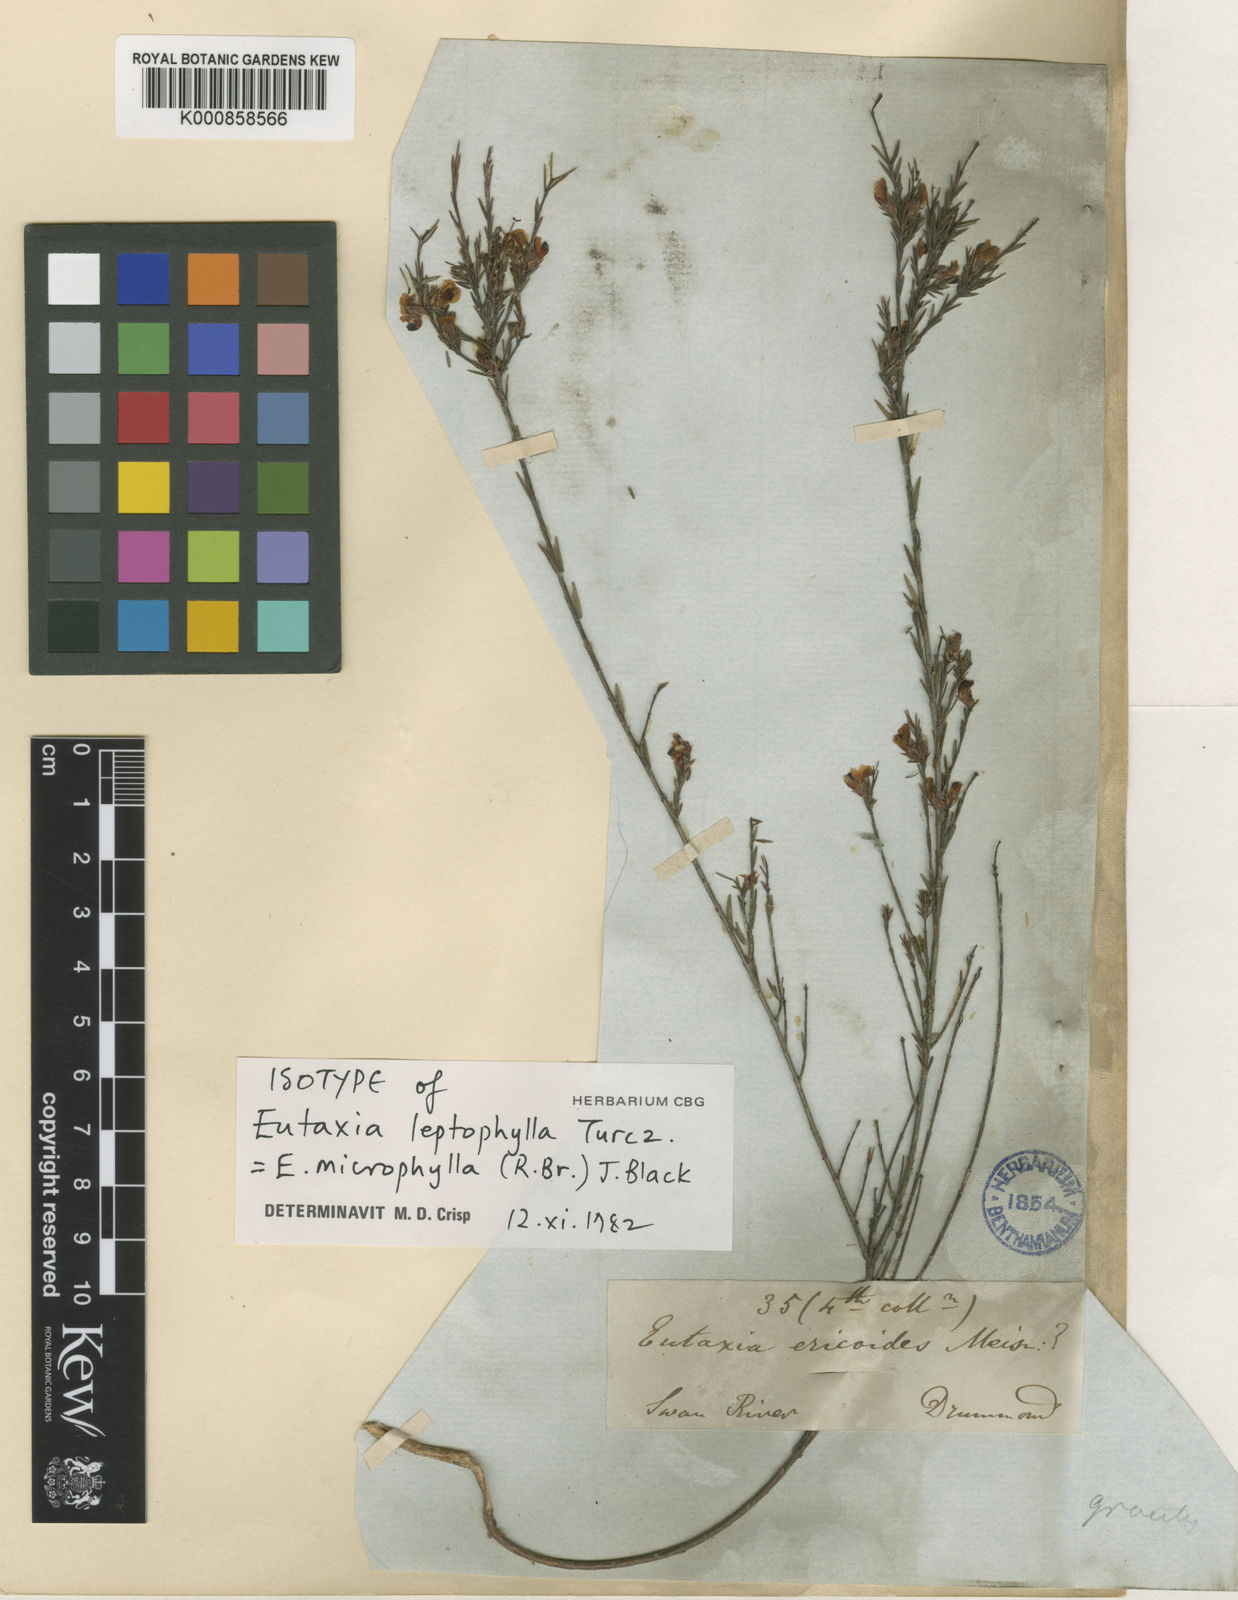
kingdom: Plantae
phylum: Tracheophyta
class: Magnoliopsida
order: Fabales
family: Fabaceae
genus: Eutaxia
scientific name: Eutaxia leptophylla
